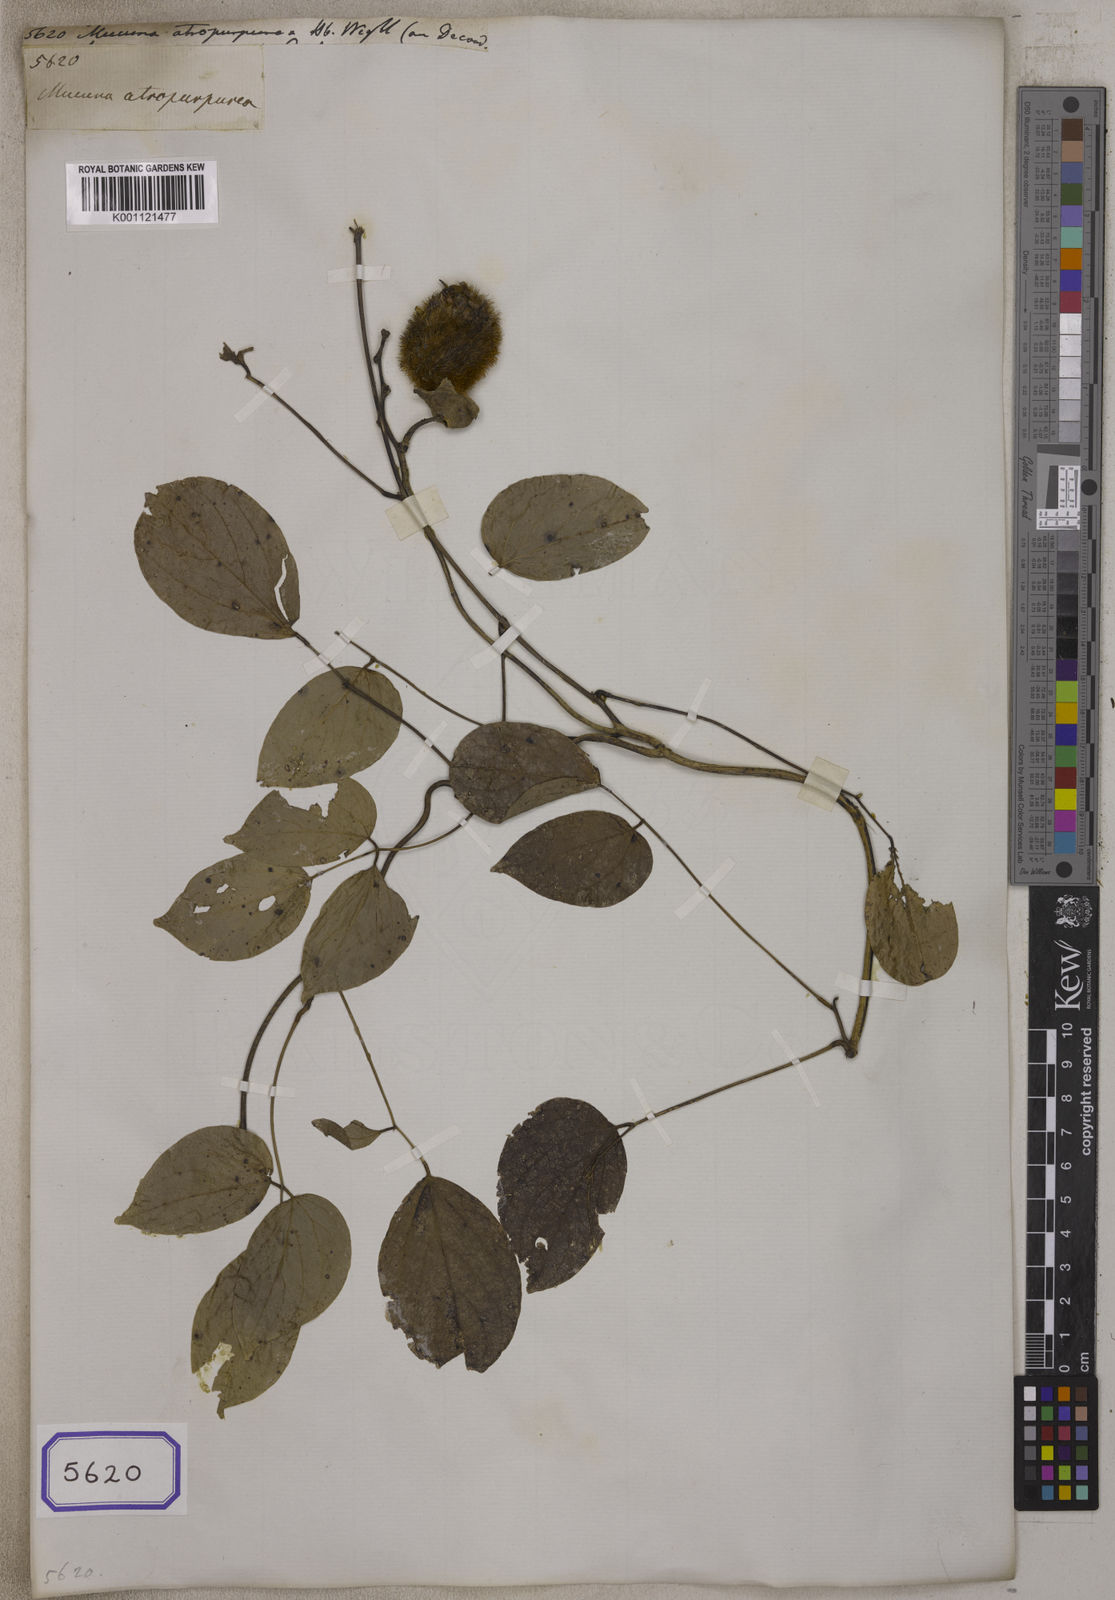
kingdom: Plantae
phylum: Tracheophyta
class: Magnoliopsida
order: Fabales
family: Fabaceae
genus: Mucuna
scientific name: Mucuna
